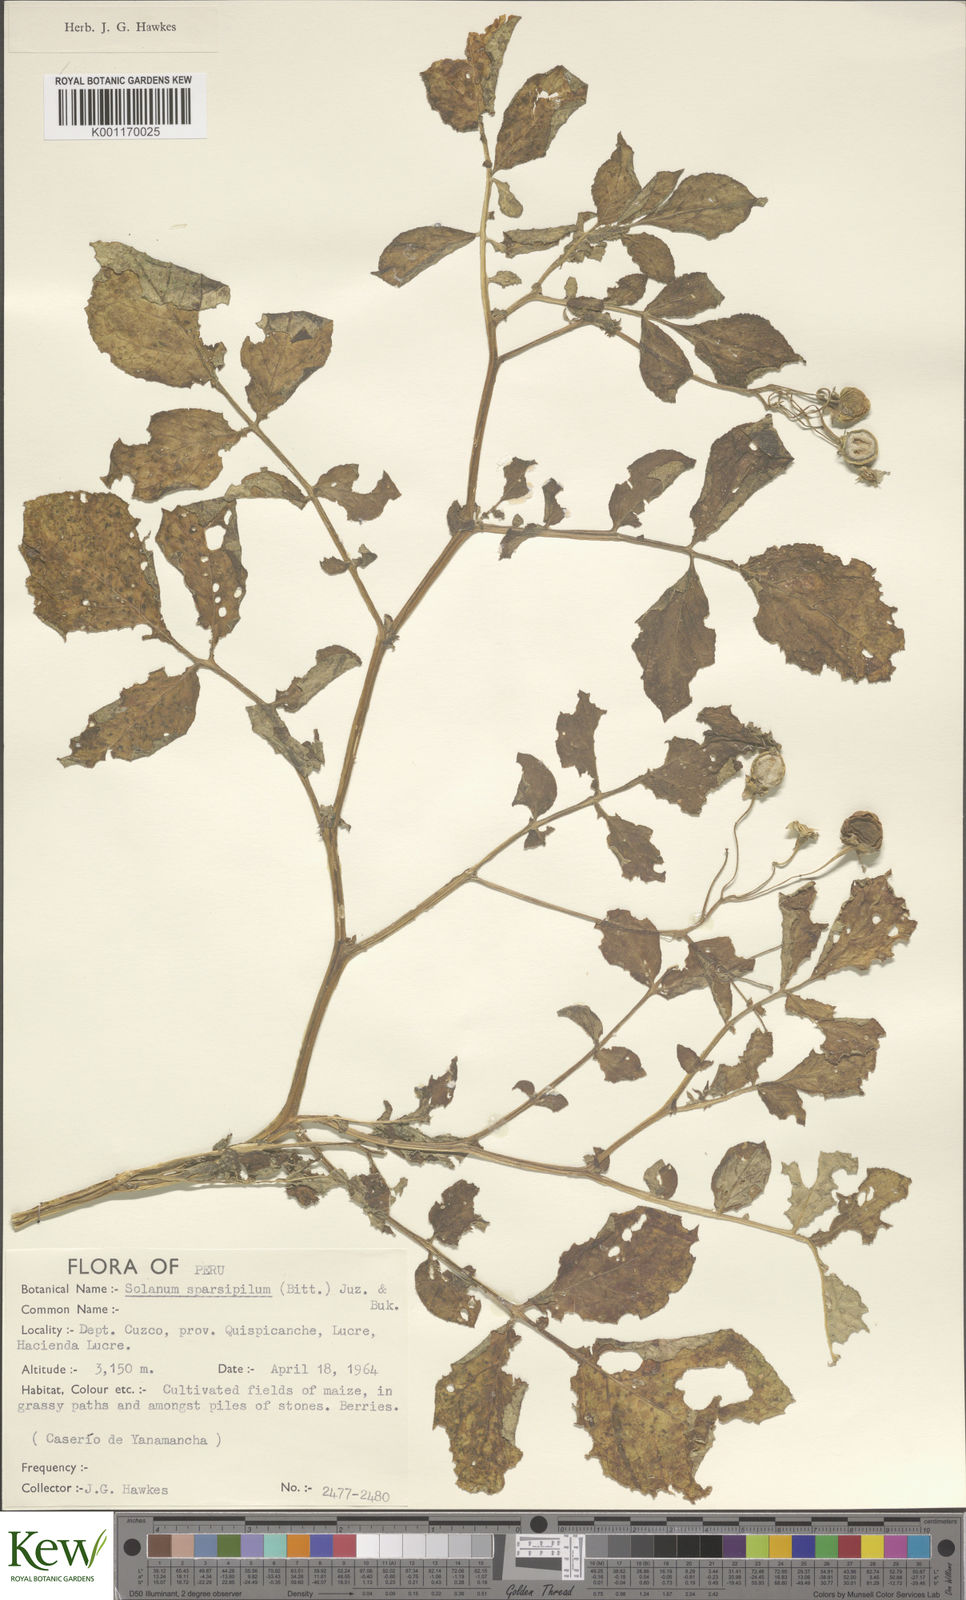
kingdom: Plantae
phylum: Tracheophyta
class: Magnoliopsida
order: Solanales
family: Solanaceae
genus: Solanum
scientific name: Solanum brevicaule
